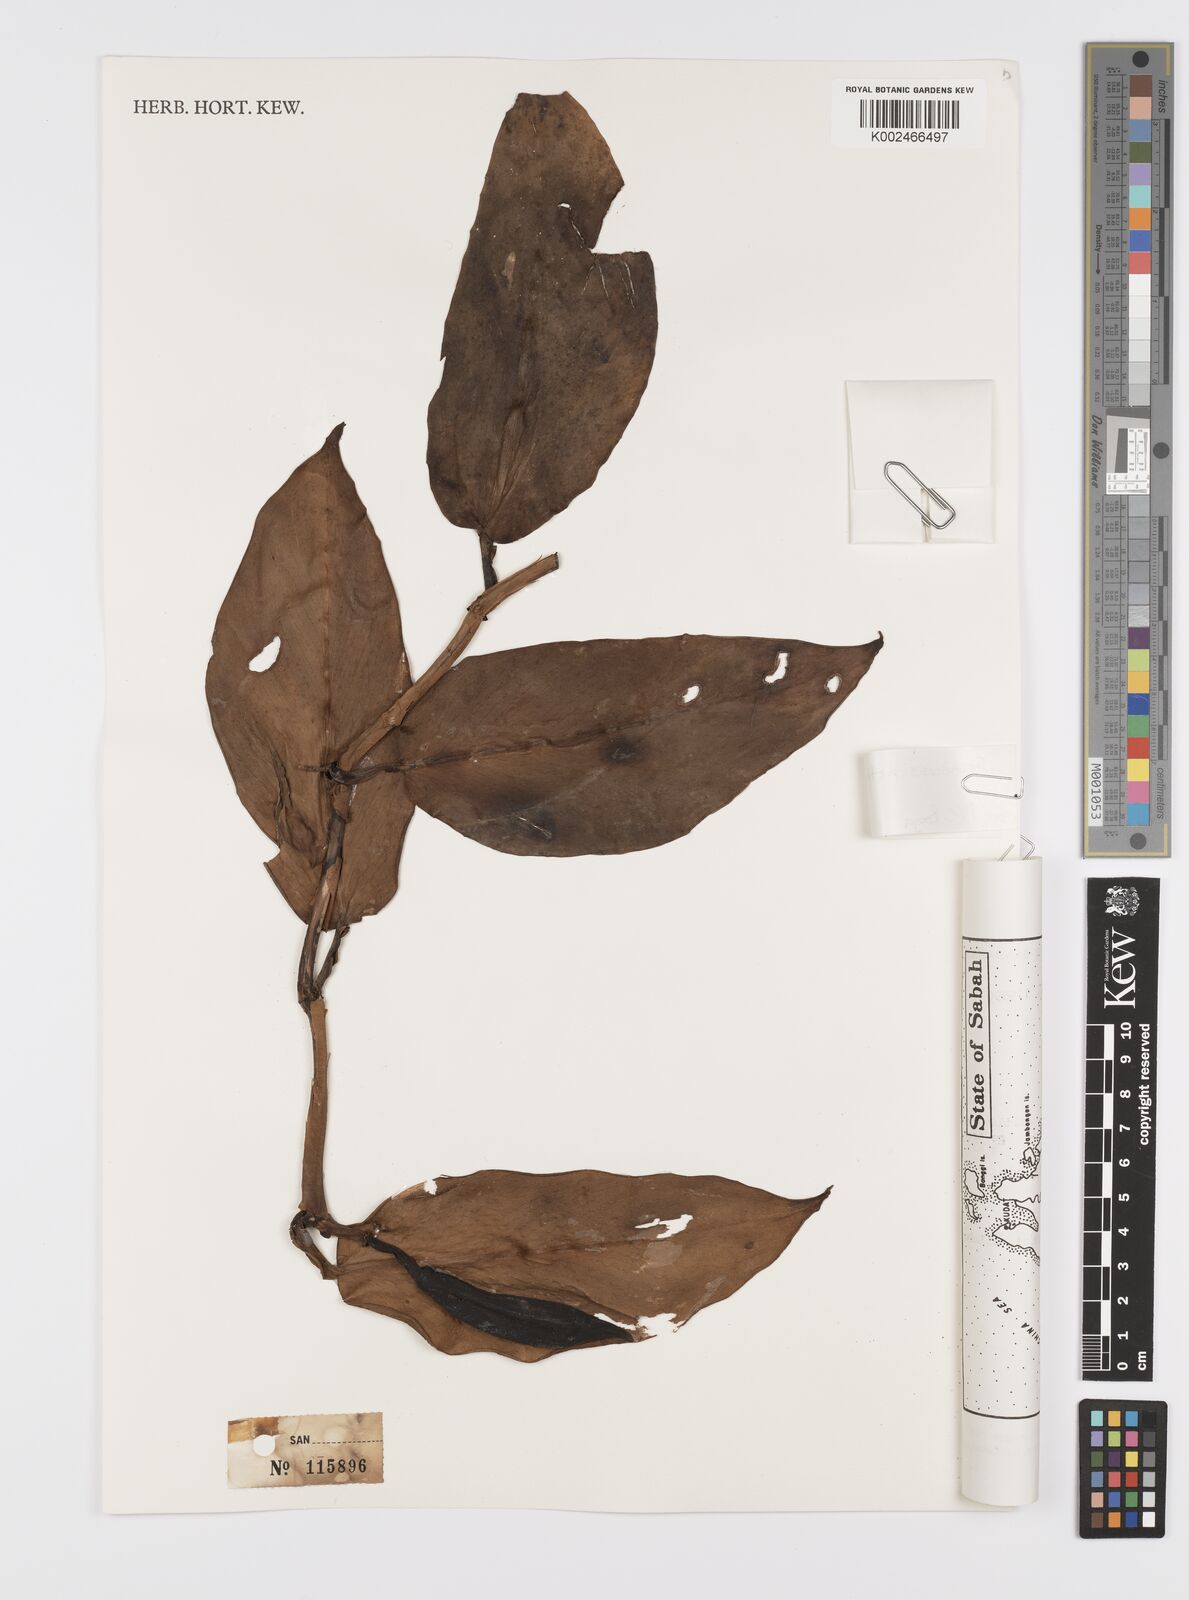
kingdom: Plantae
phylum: Tracheophyta
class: Liliopsida
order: Alismatales
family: Araceae
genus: Scindapsus
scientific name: Scindapsus pictus
